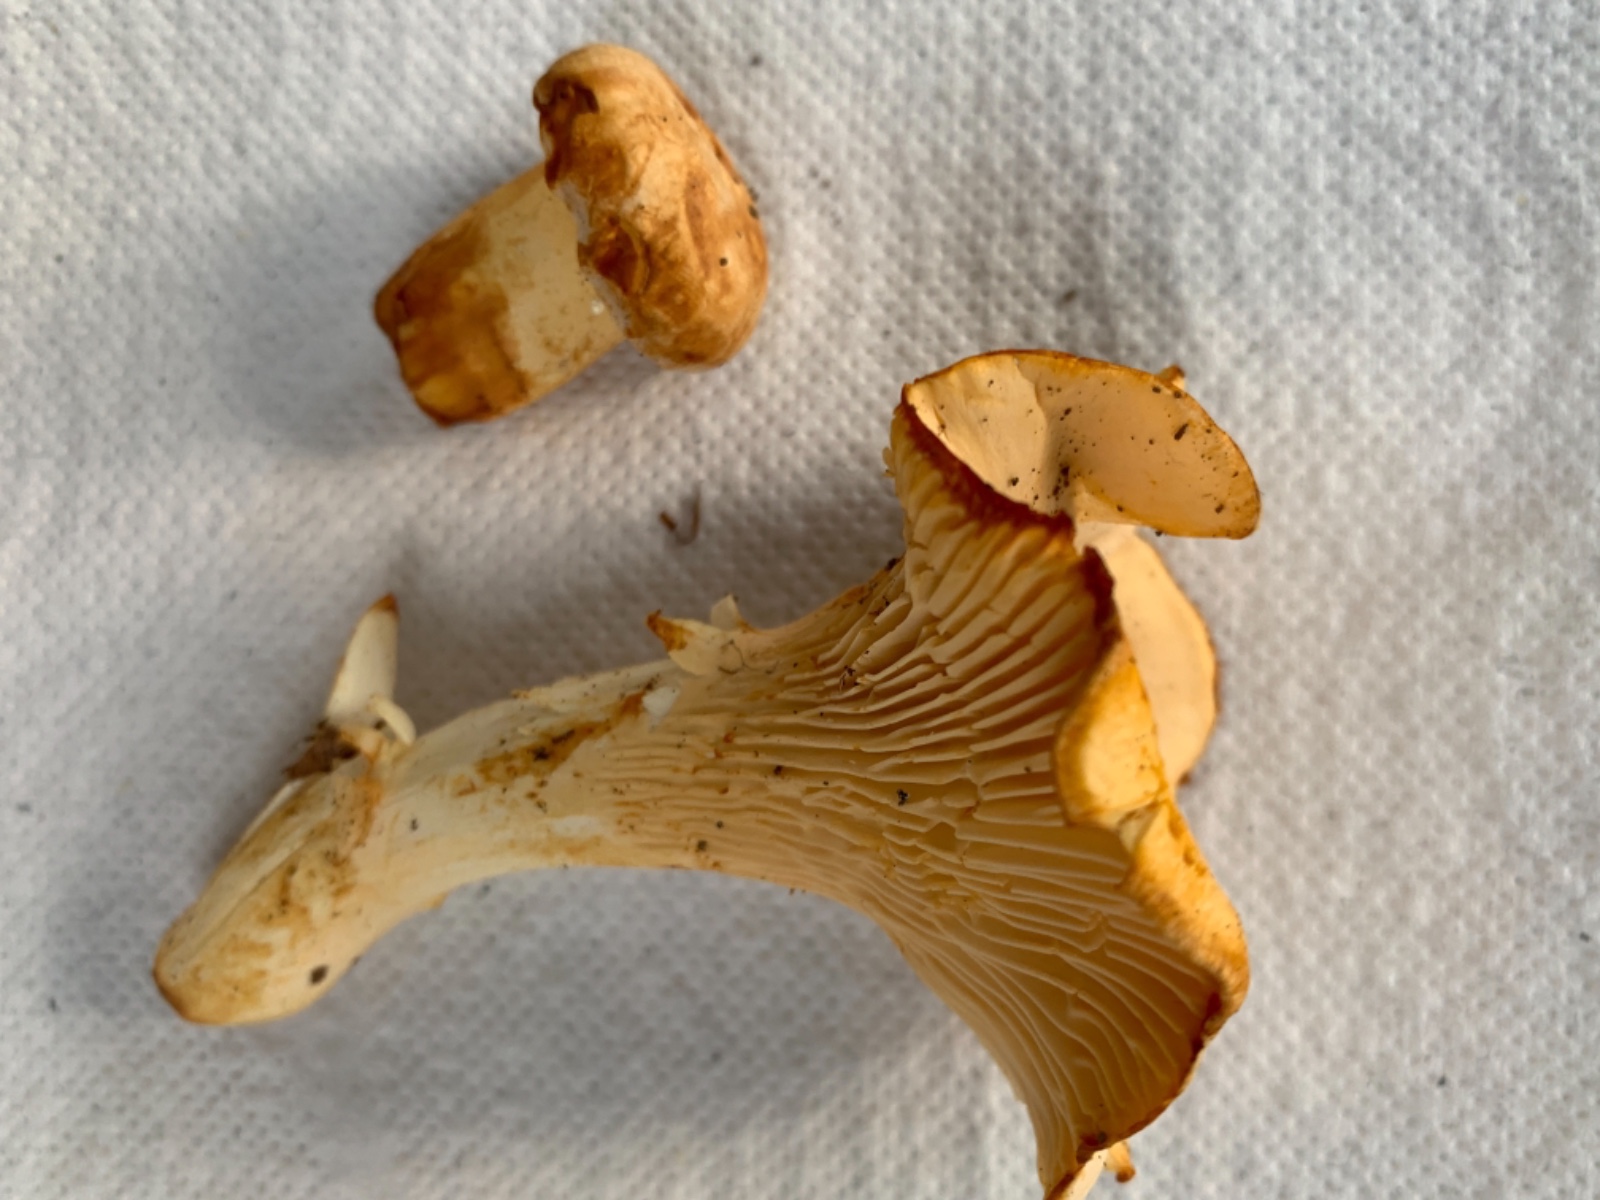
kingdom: Fungi
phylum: Basidiomycota
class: Agaricomycetes
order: Cantharellales
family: Hydnaceae
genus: Cantharellus
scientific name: Cantharellus pallens
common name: bleg kantarel
